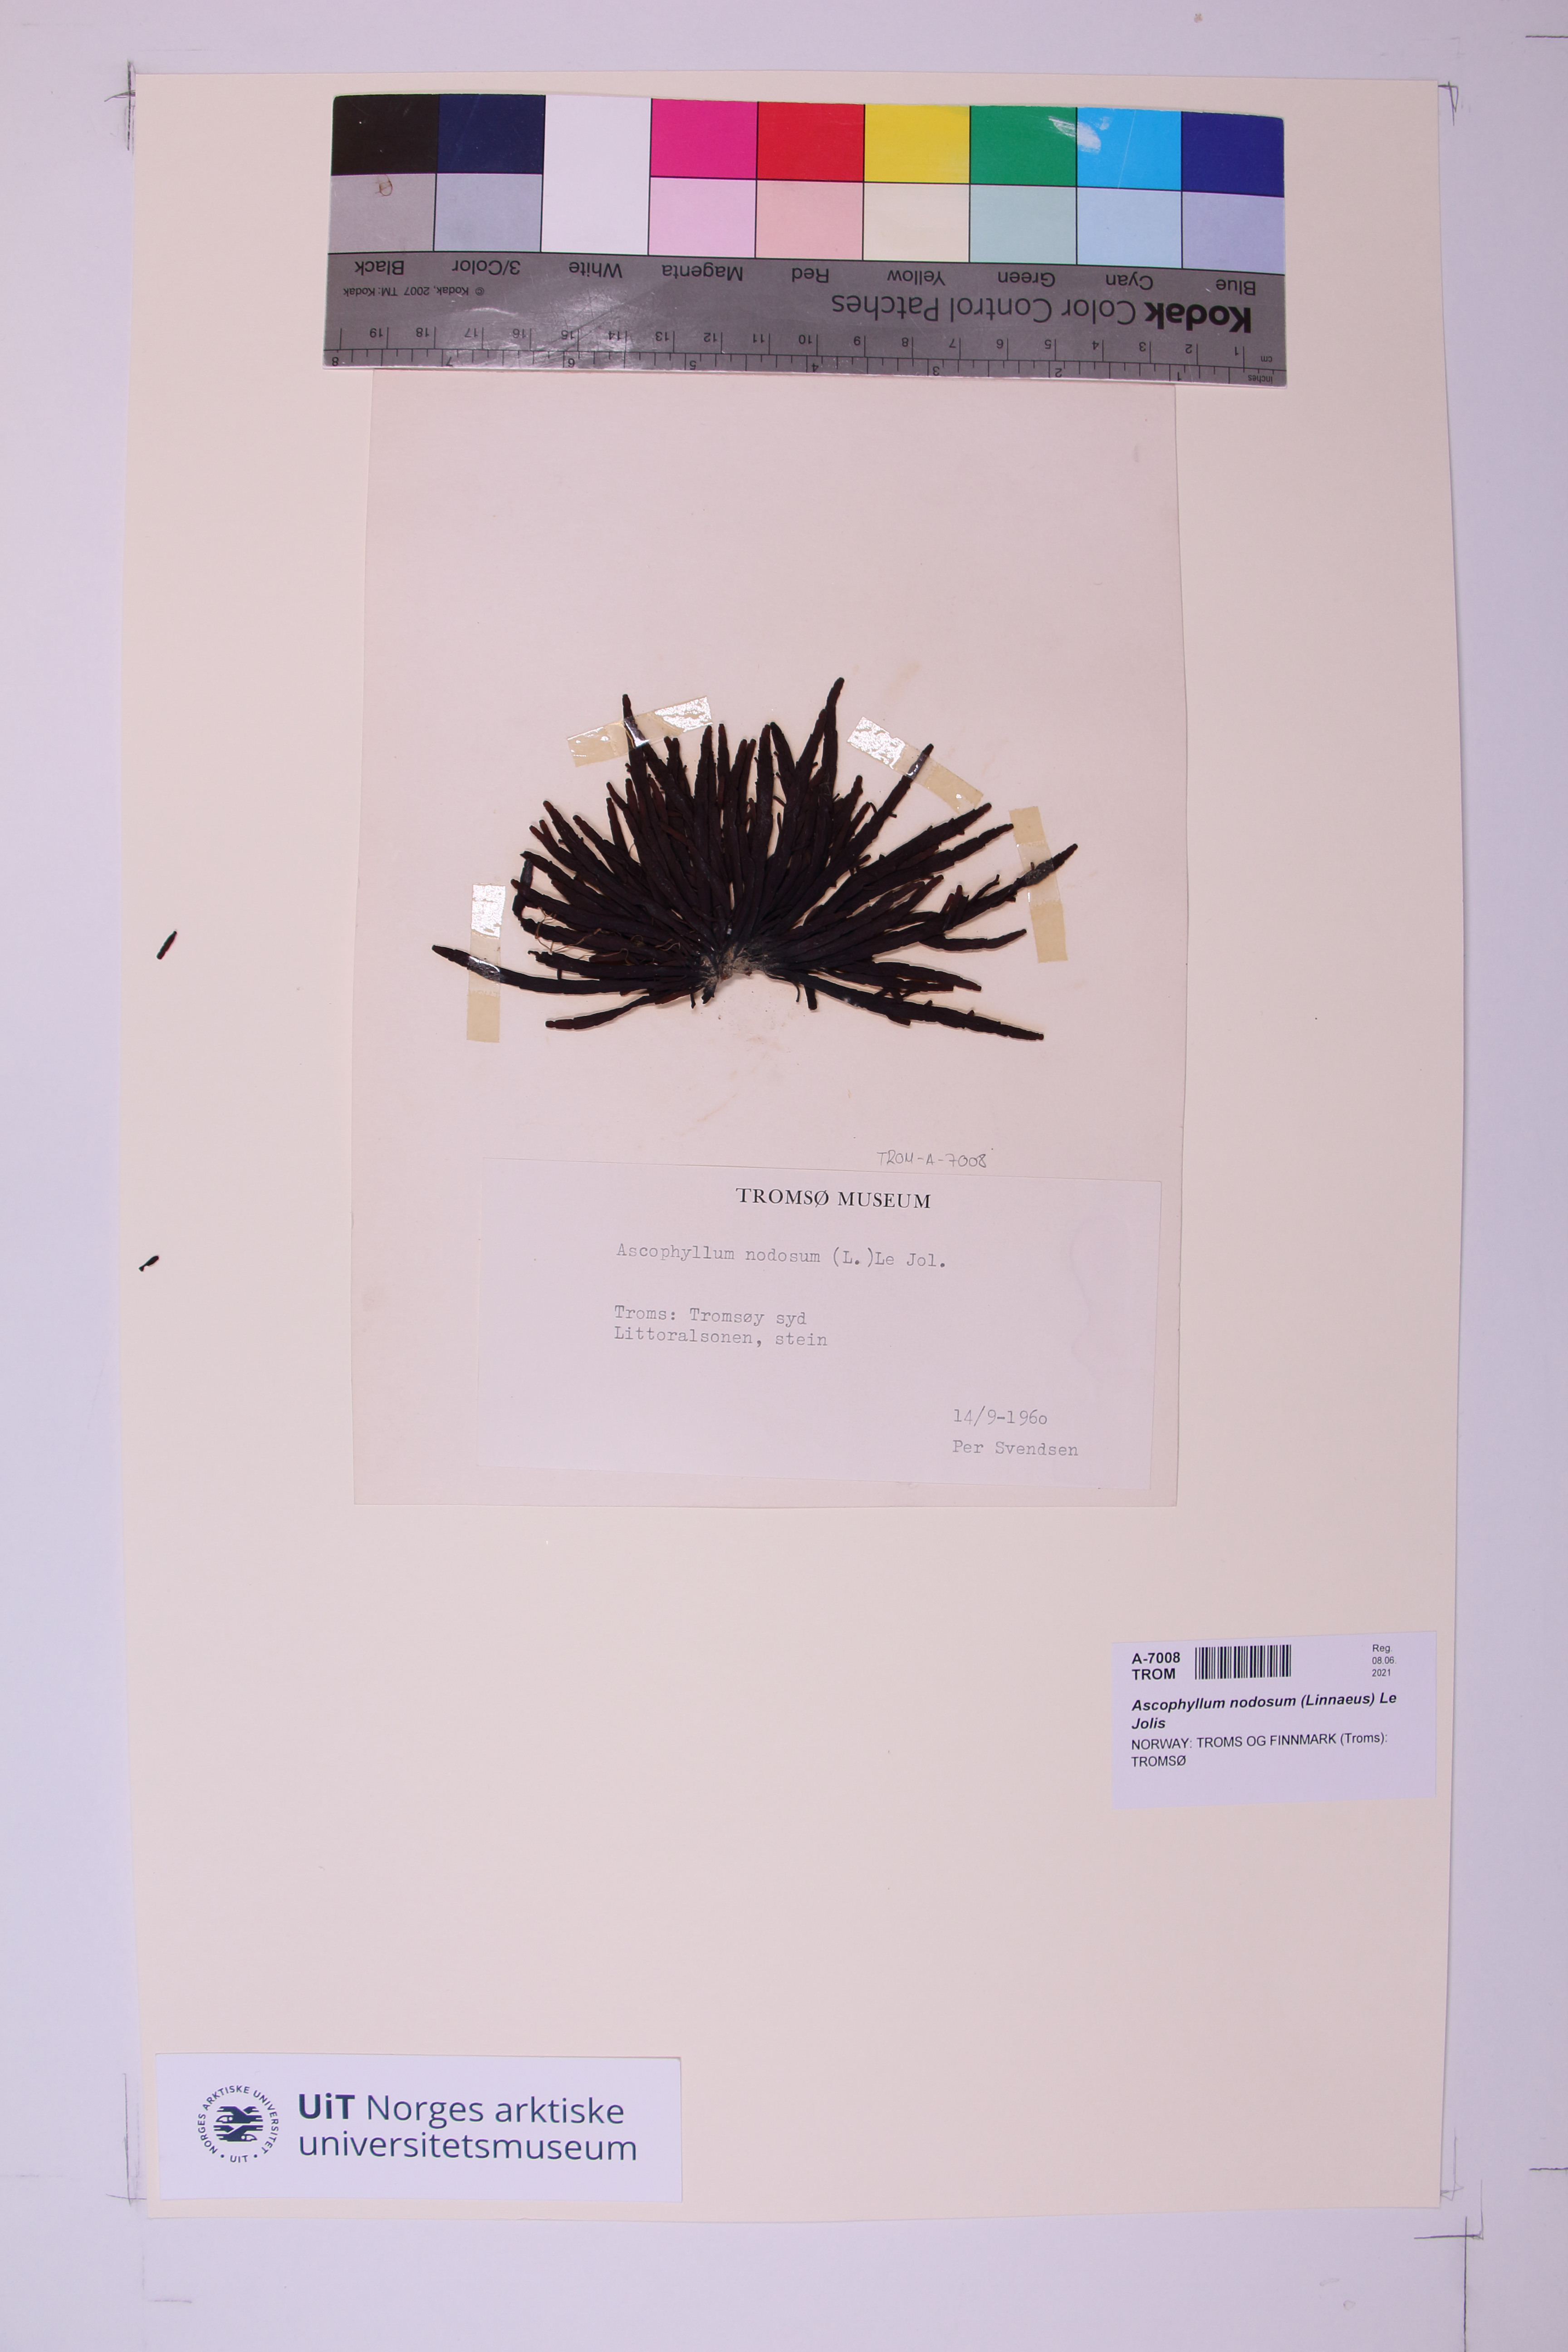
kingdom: Chromista
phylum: Ochrophyta
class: Phaeophyceae
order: Fucales
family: Fucaceae
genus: Ascophyllum
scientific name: Ascophyllum nodosum
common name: Knotted wrack
